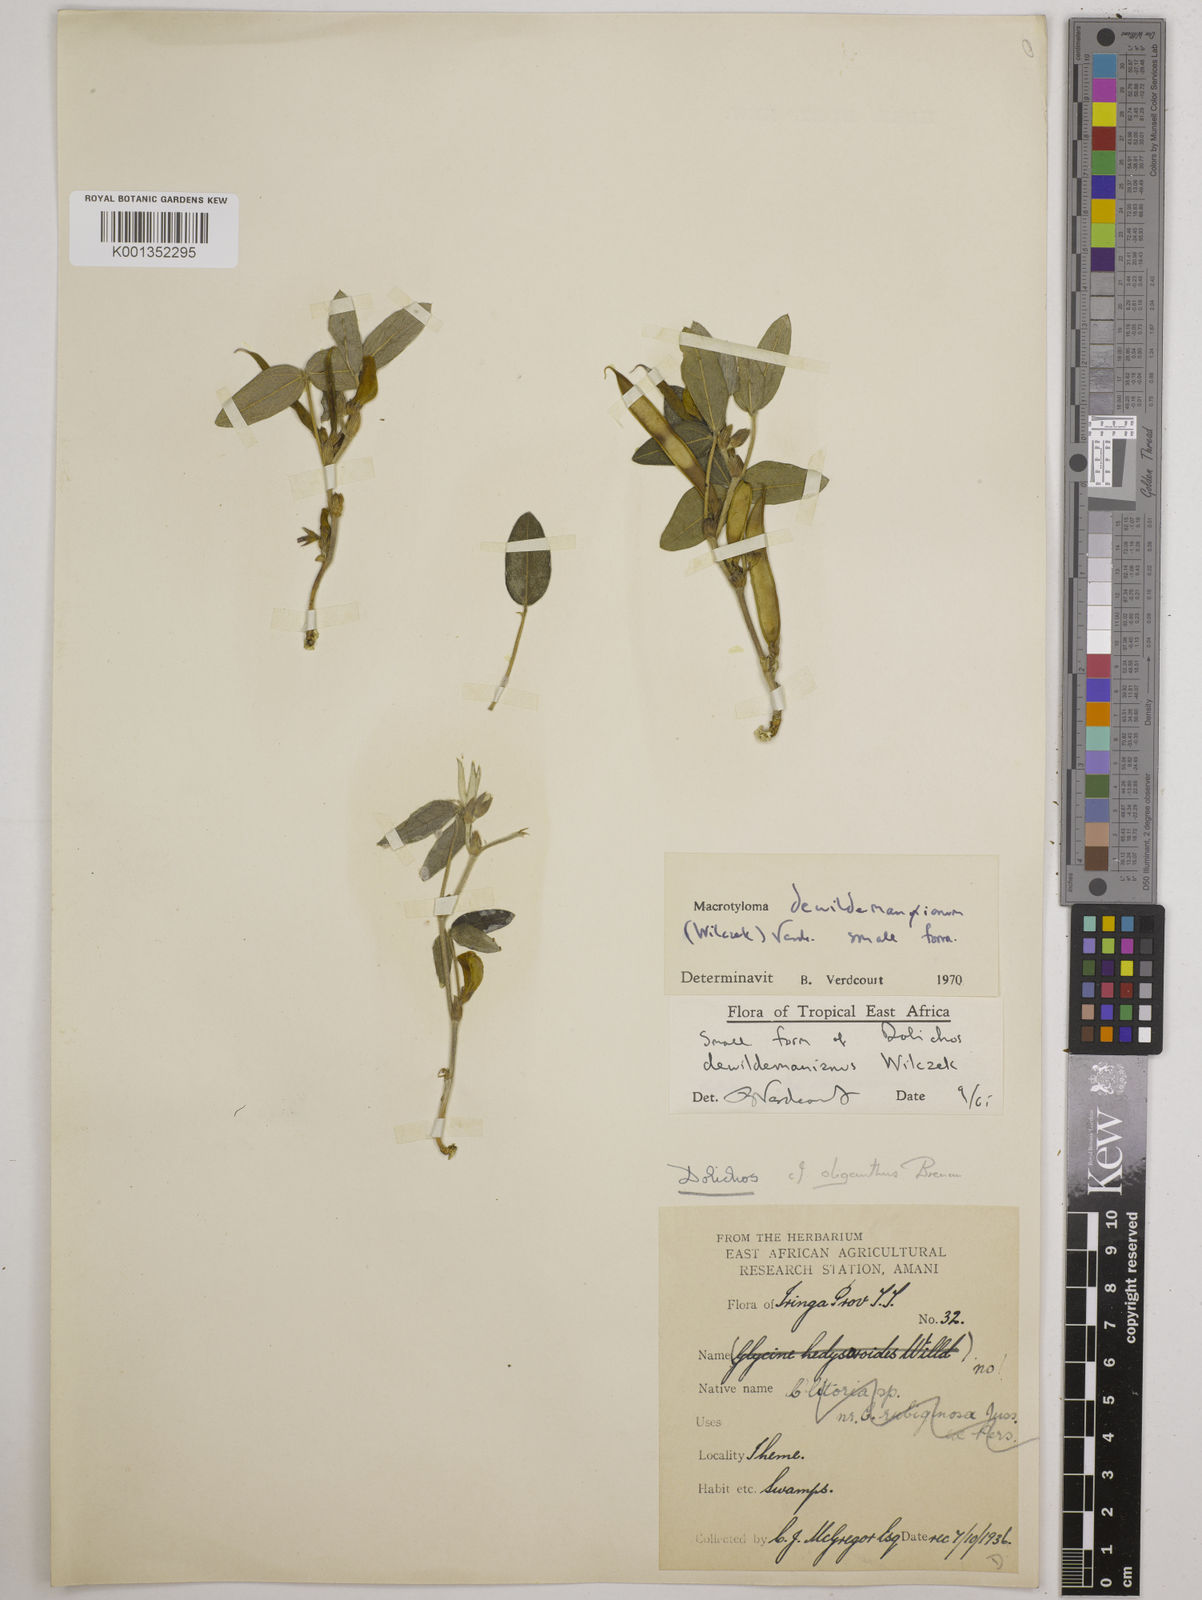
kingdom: Plantae
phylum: Tracheophyta
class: Magnoliopsida
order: Fabales
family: Fabaceae
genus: Macrotyloma
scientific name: Macrotyloma dewildemanianum
